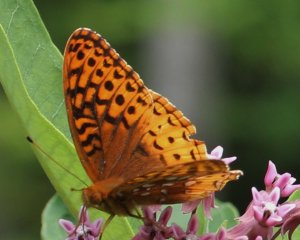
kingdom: Animalia
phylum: Arthropoda
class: Insecta
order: Lepidoptera
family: Nymphalidae
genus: Speyeria
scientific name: Speyeria cybele
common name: Great Spangled Fritillary
